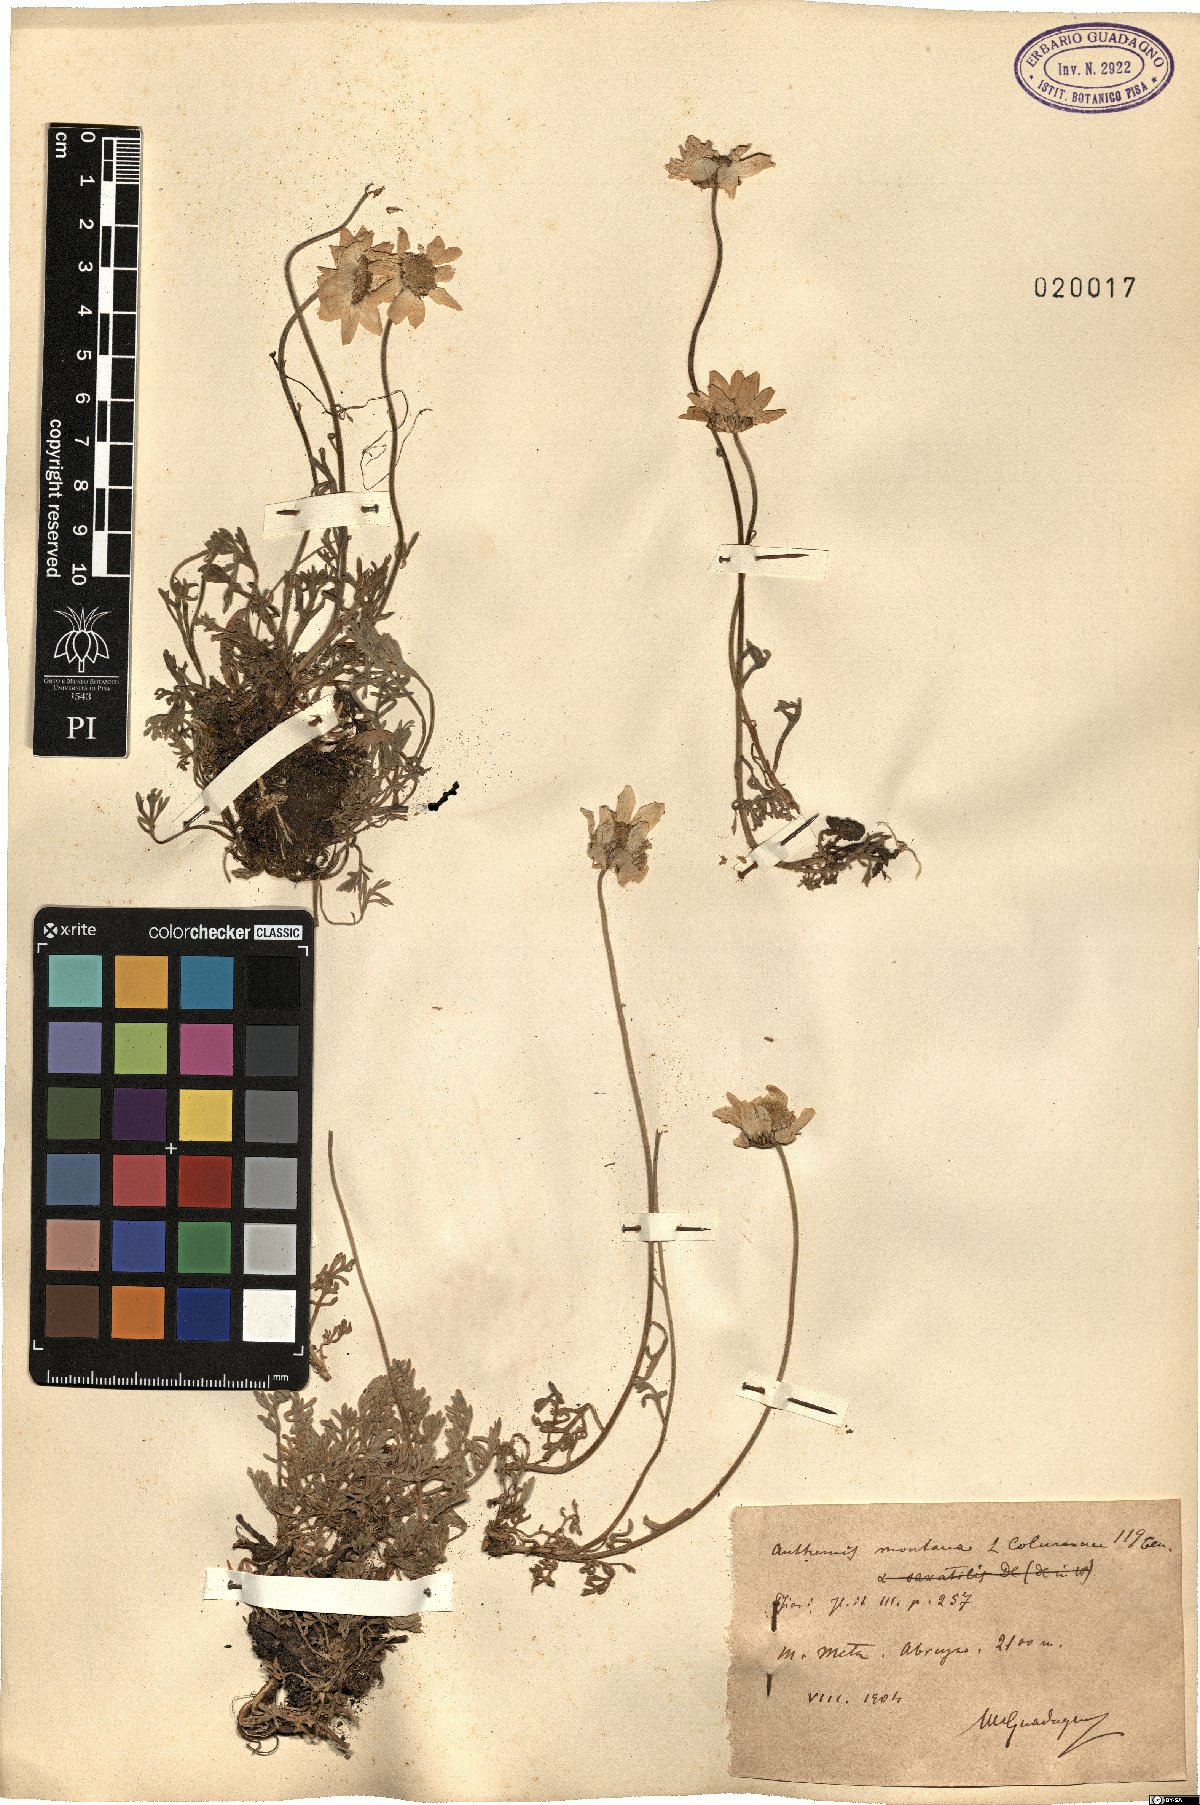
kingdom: Plantae
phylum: Tracheophyta
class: Magnoliopsida
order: Asterales
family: Asteraceae
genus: Anthemis
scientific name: Anthemis cretica
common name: Mountain dog-daisy
